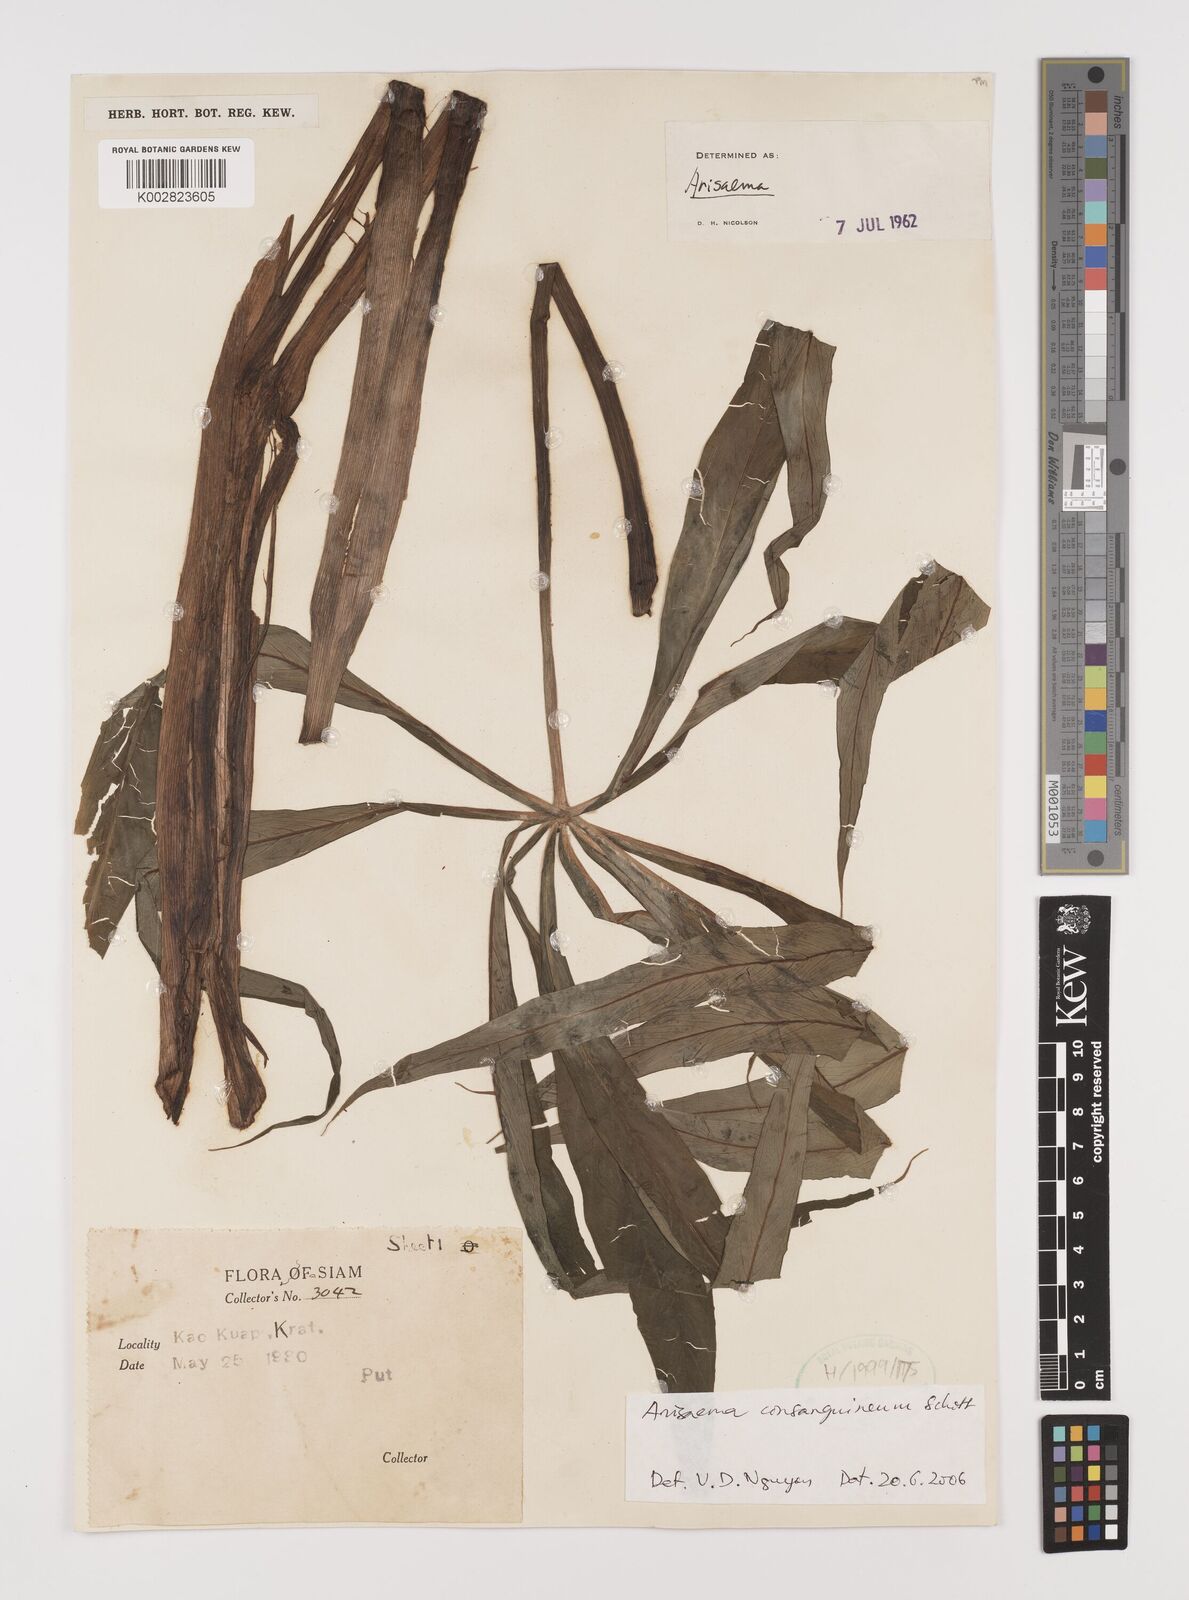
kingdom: Plantae
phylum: Tracheophyta
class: Liliopsida
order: Alismatales
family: Araceae
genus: Arisaema
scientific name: Arisaema consanguineum
